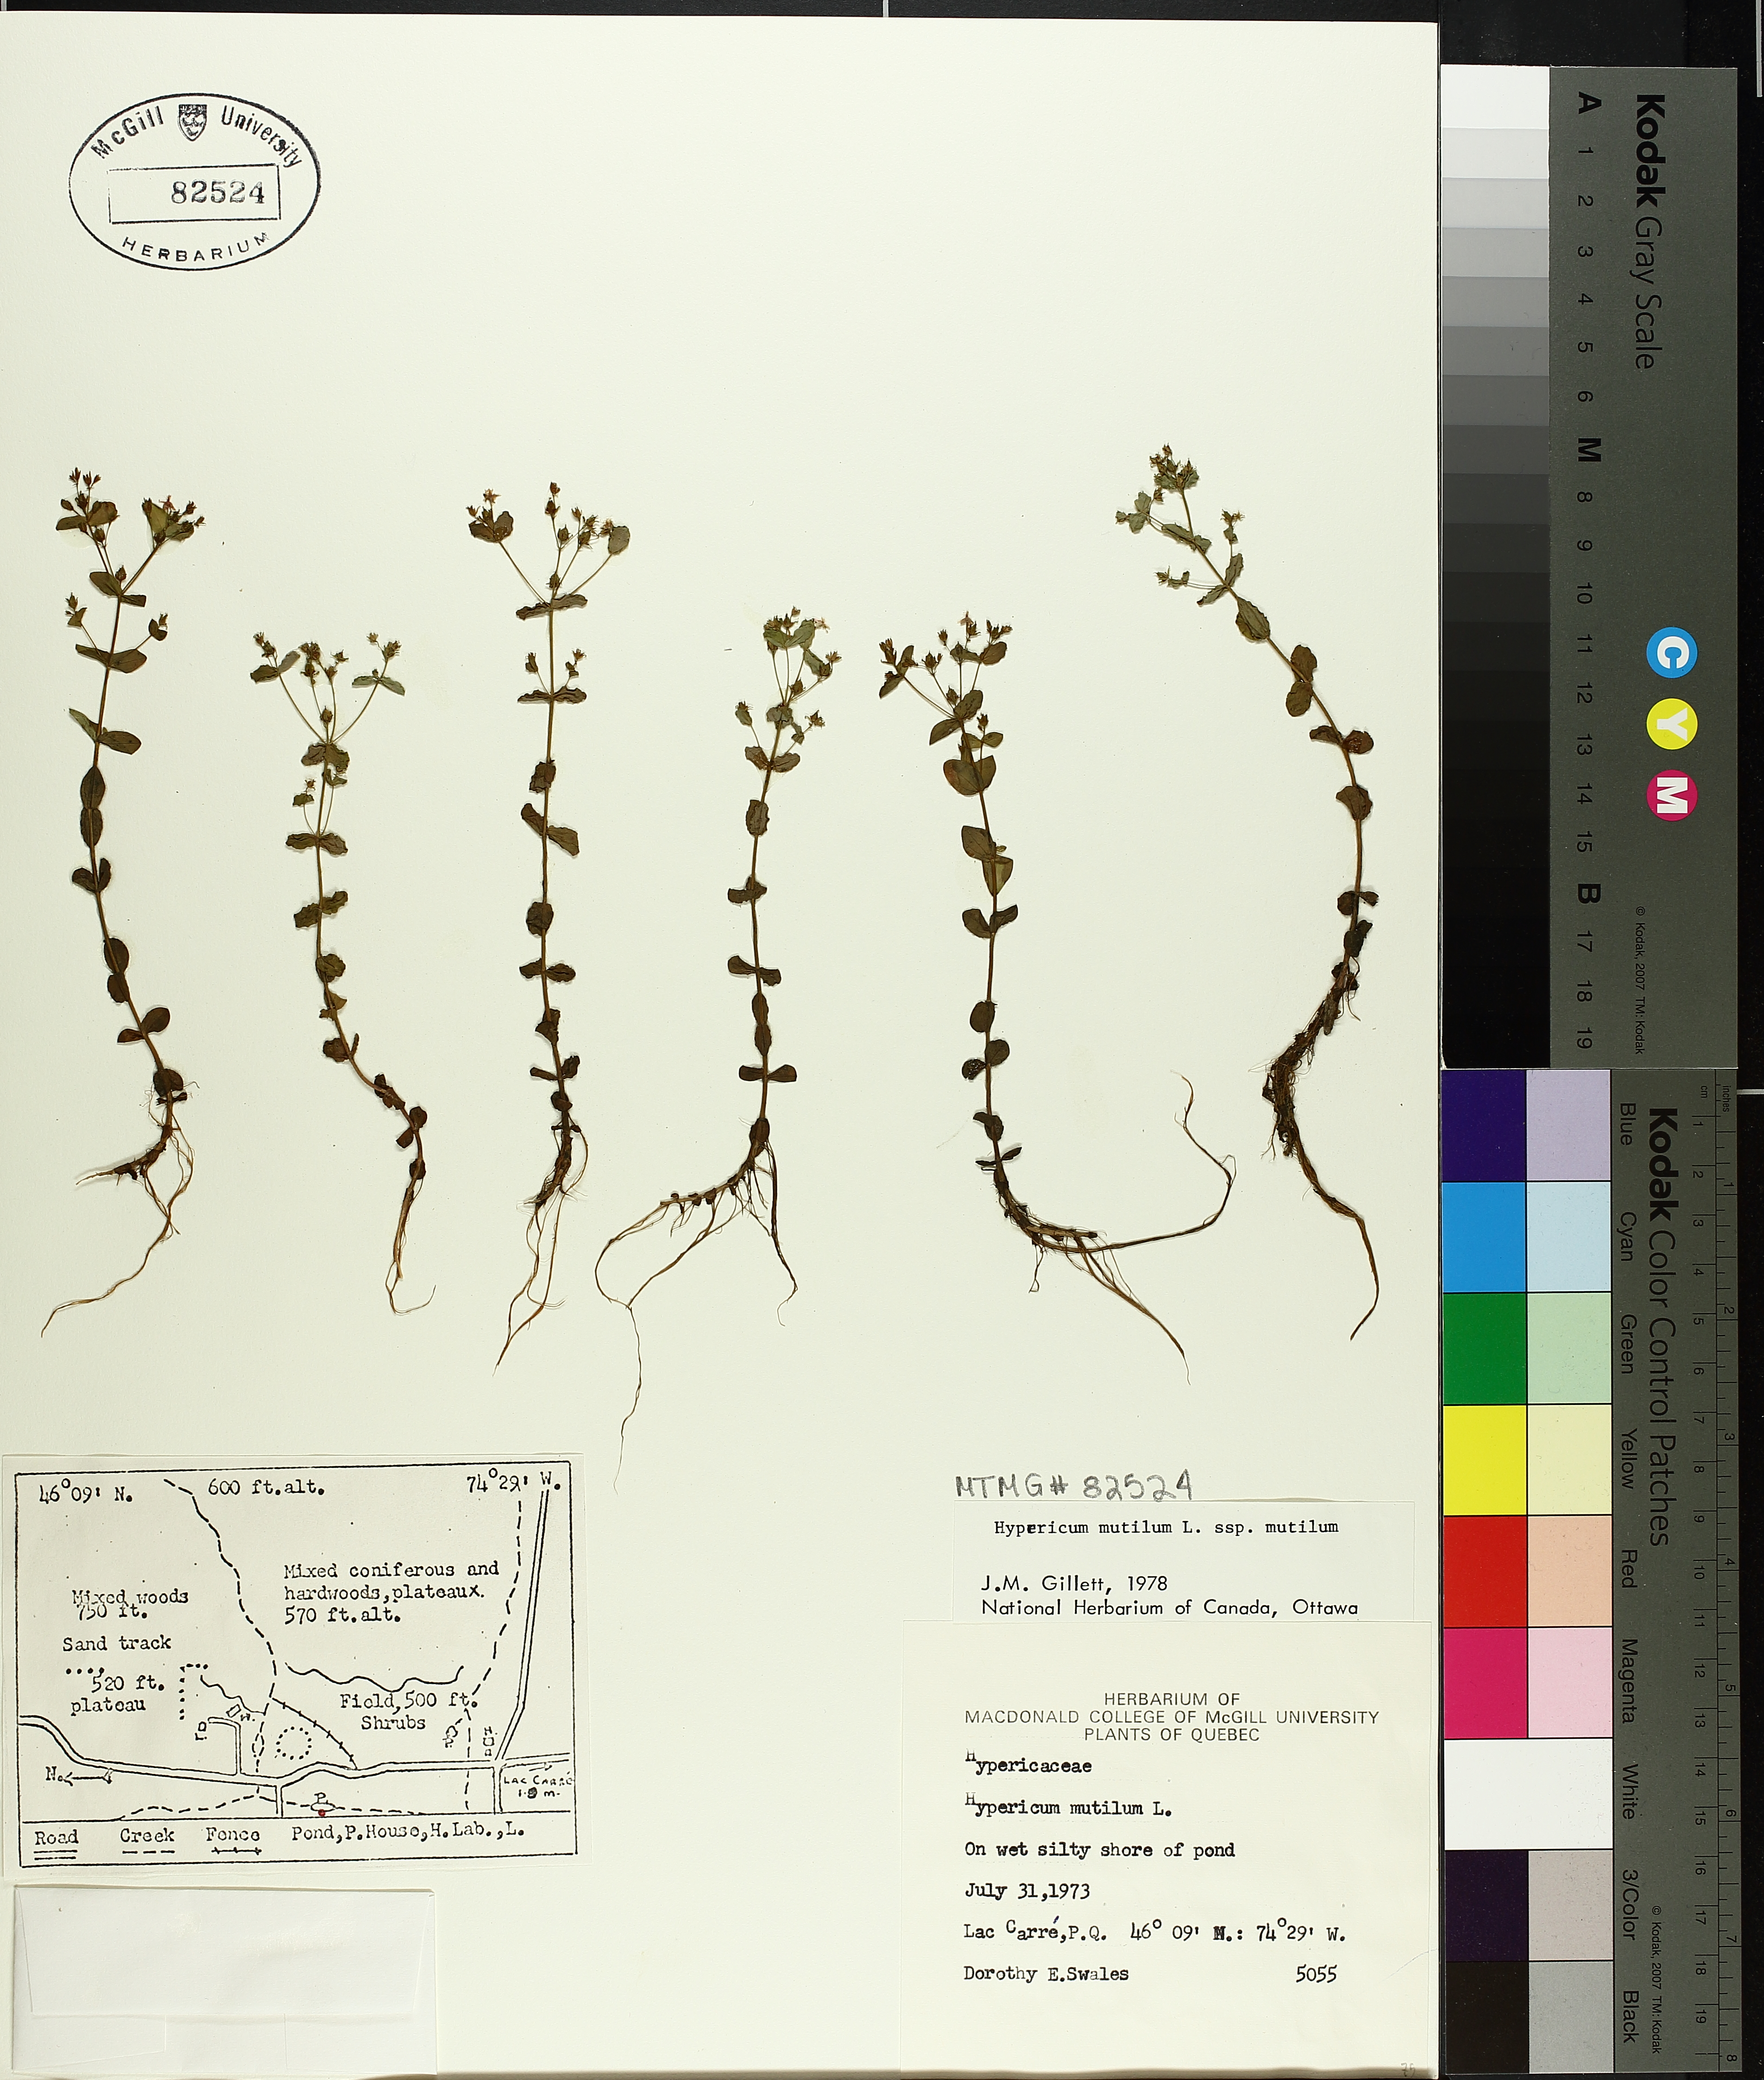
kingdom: Plantae
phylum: Tracheophyta
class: Magnoliopsida
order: Malpighiales
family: Hypericaceae
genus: Hypericum
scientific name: Hypericum mutilum
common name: Dwarf st. john's-wort
